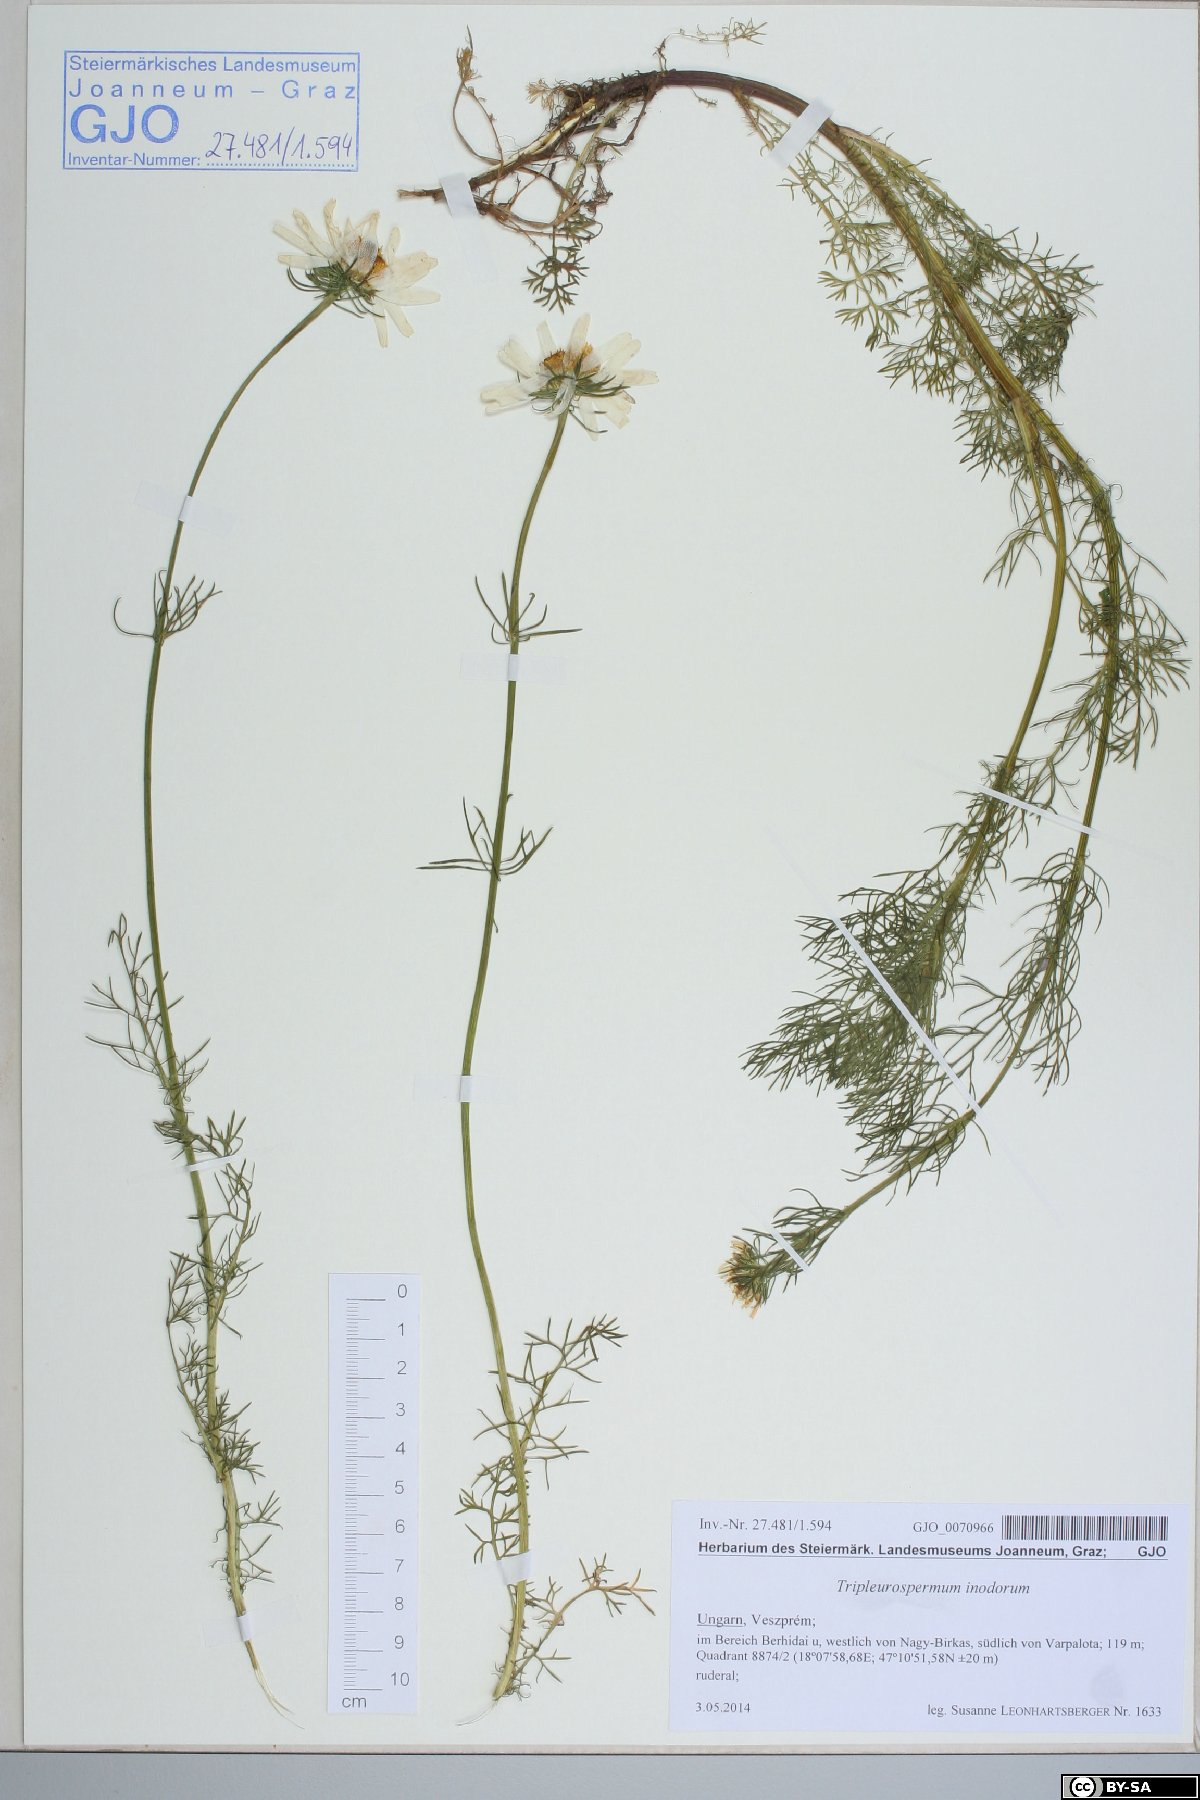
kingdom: Plantae
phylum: Tracheophyta
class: Magnoliopsida
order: Asterales
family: Asteraceae
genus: Tripleurospermum
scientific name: Tripleurospermum inodorum
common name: Scentless mayweed
